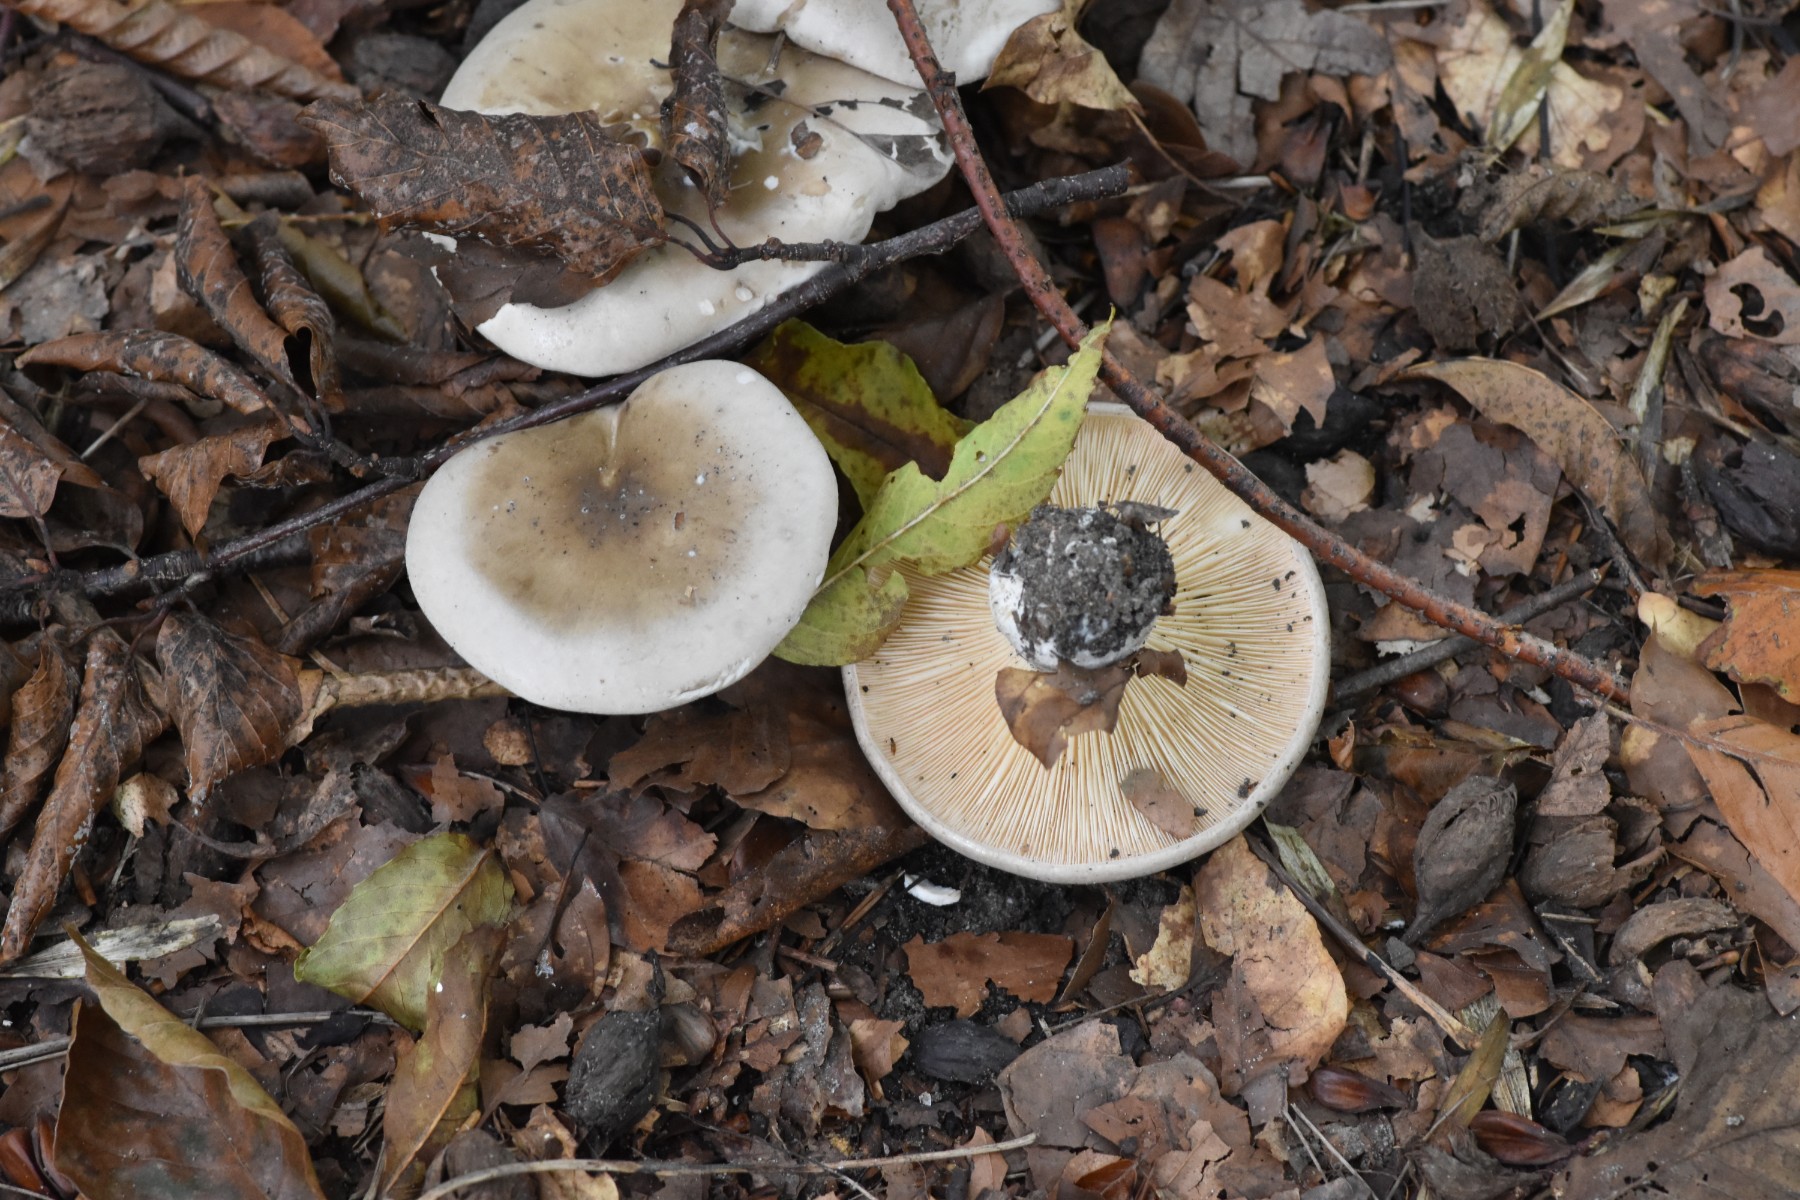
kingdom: Fungi
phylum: Basidiomycota
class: Agaricomycetes
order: Agaricales
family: Tricholomataceae
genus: Clitocybe
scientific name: Clitocybe nebularis
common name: tåge-tragthat
